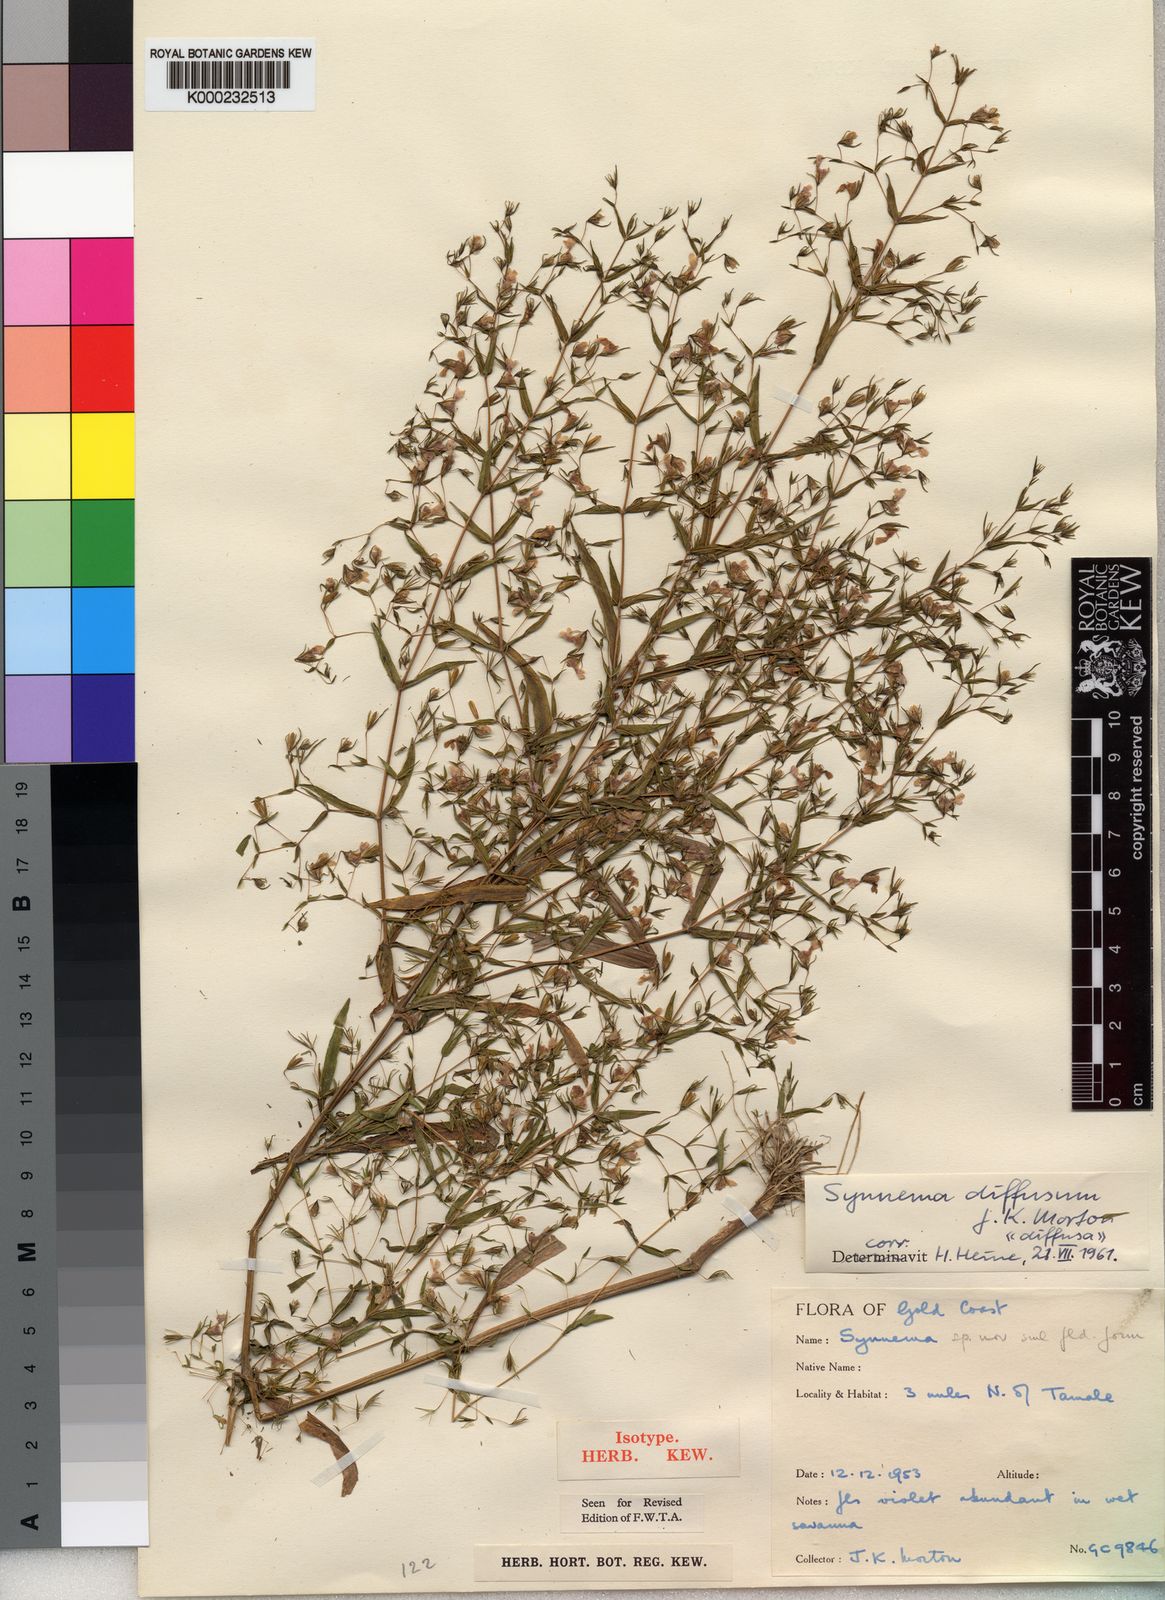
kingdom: Plantae
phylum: Tracheophyta
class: Magnoliopsida
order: Lamiales
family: Acanthaceae
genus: Hygrophila
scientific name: Hygrophila borellii
